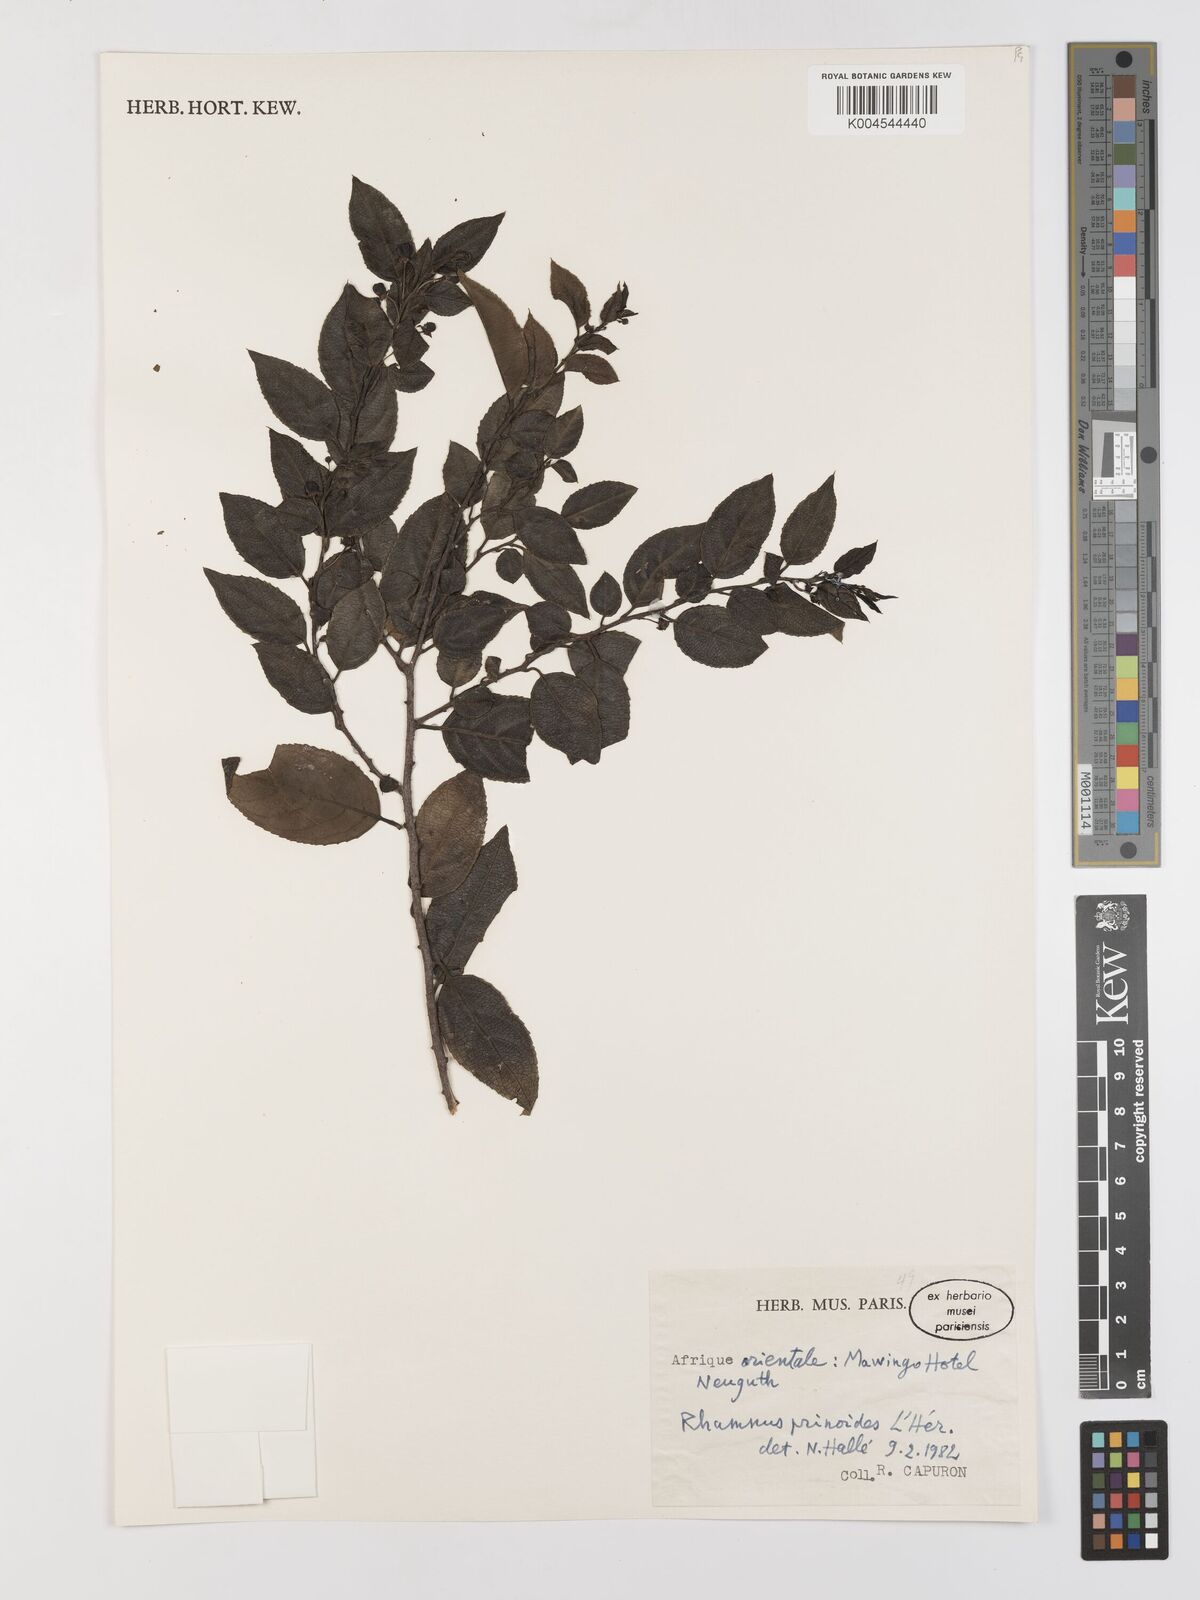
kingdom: Plantae
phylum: Tracheophyta
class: Magnoliopsida
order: Rosales
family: Rhamnaceae
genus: Rhamnus
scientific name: Rhamnus prinoides
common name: Dogwood
